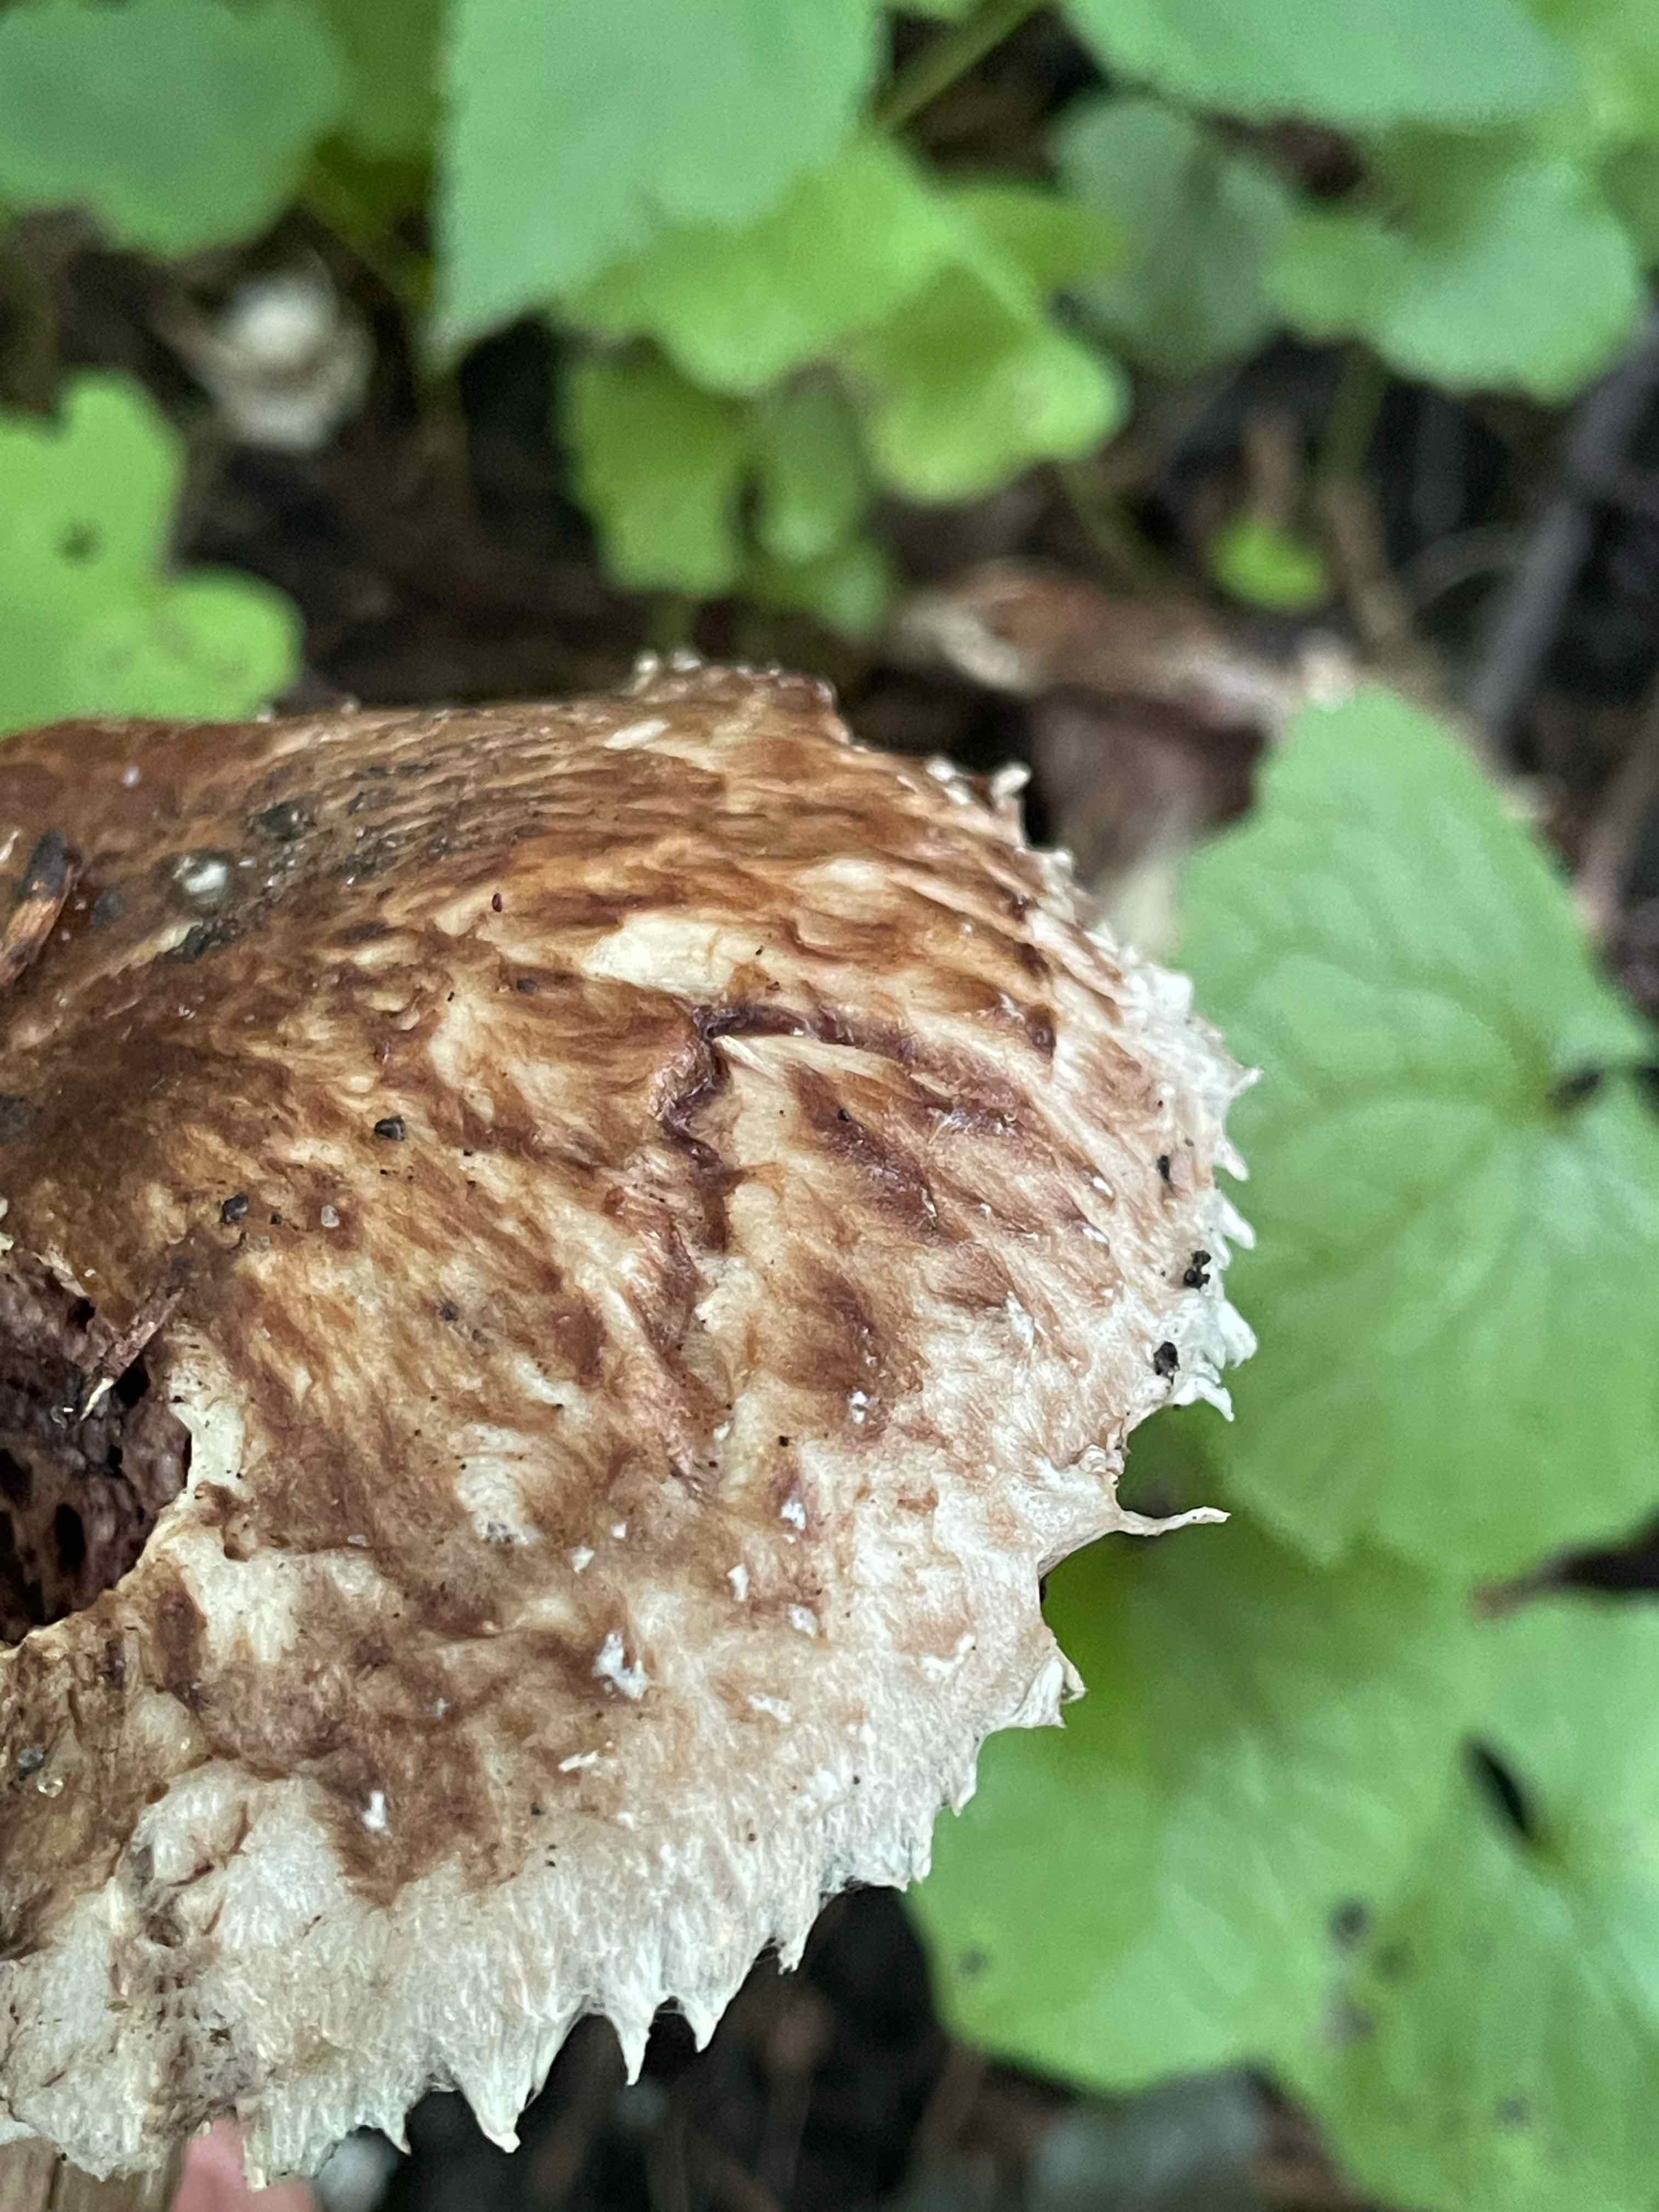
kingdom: Fungi
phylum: Basidiomycota
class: Agaricomycetes
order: Agaricales
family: Agaricaceae
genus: Agaricus
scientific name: Agaricus
